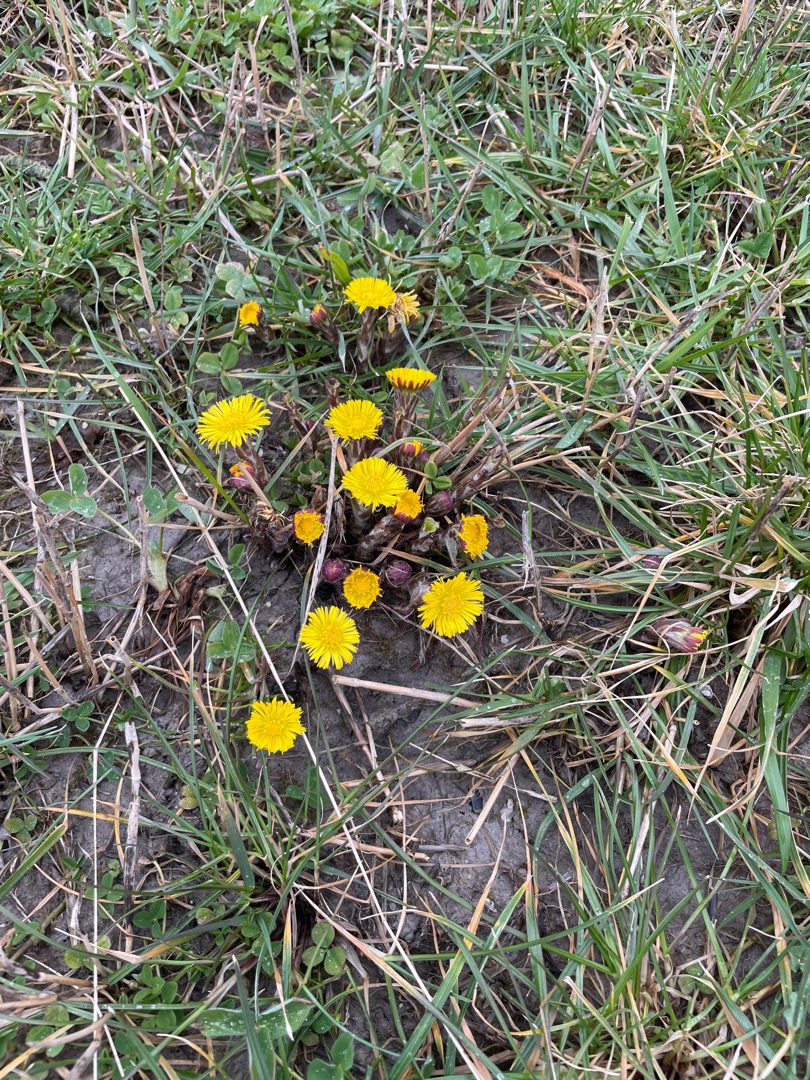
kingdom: Plantae
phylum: Tracheophyta
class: Magnoliopsida
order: Asterales
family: Asteraceae
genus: Tussilago
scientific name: Tussilago farfara
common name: Følfod
